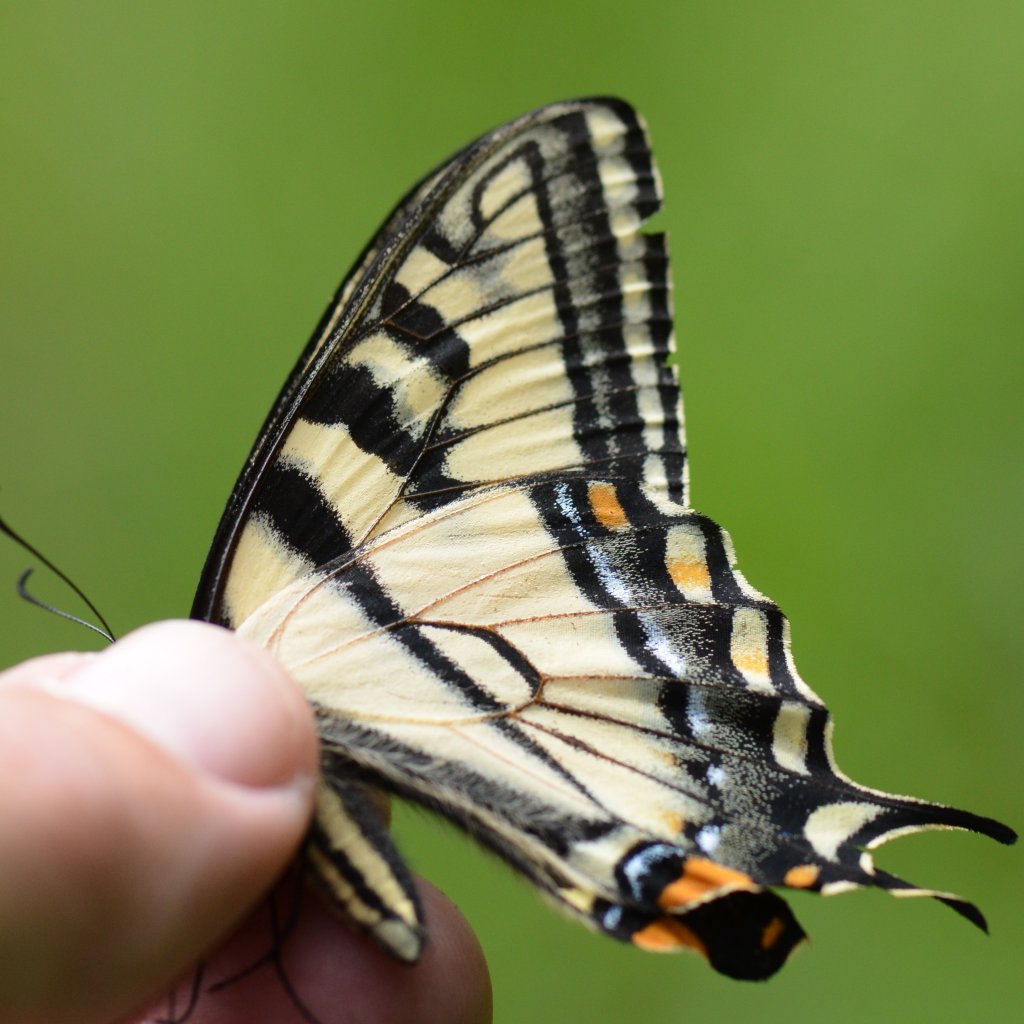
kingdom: Animalia
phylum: Arthropoda
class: Insecta
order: Lepidoptera
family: Papilionidae
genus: Pterourus
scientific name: Pterourus canadensis
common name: Canadian Tiger Swallowtail
